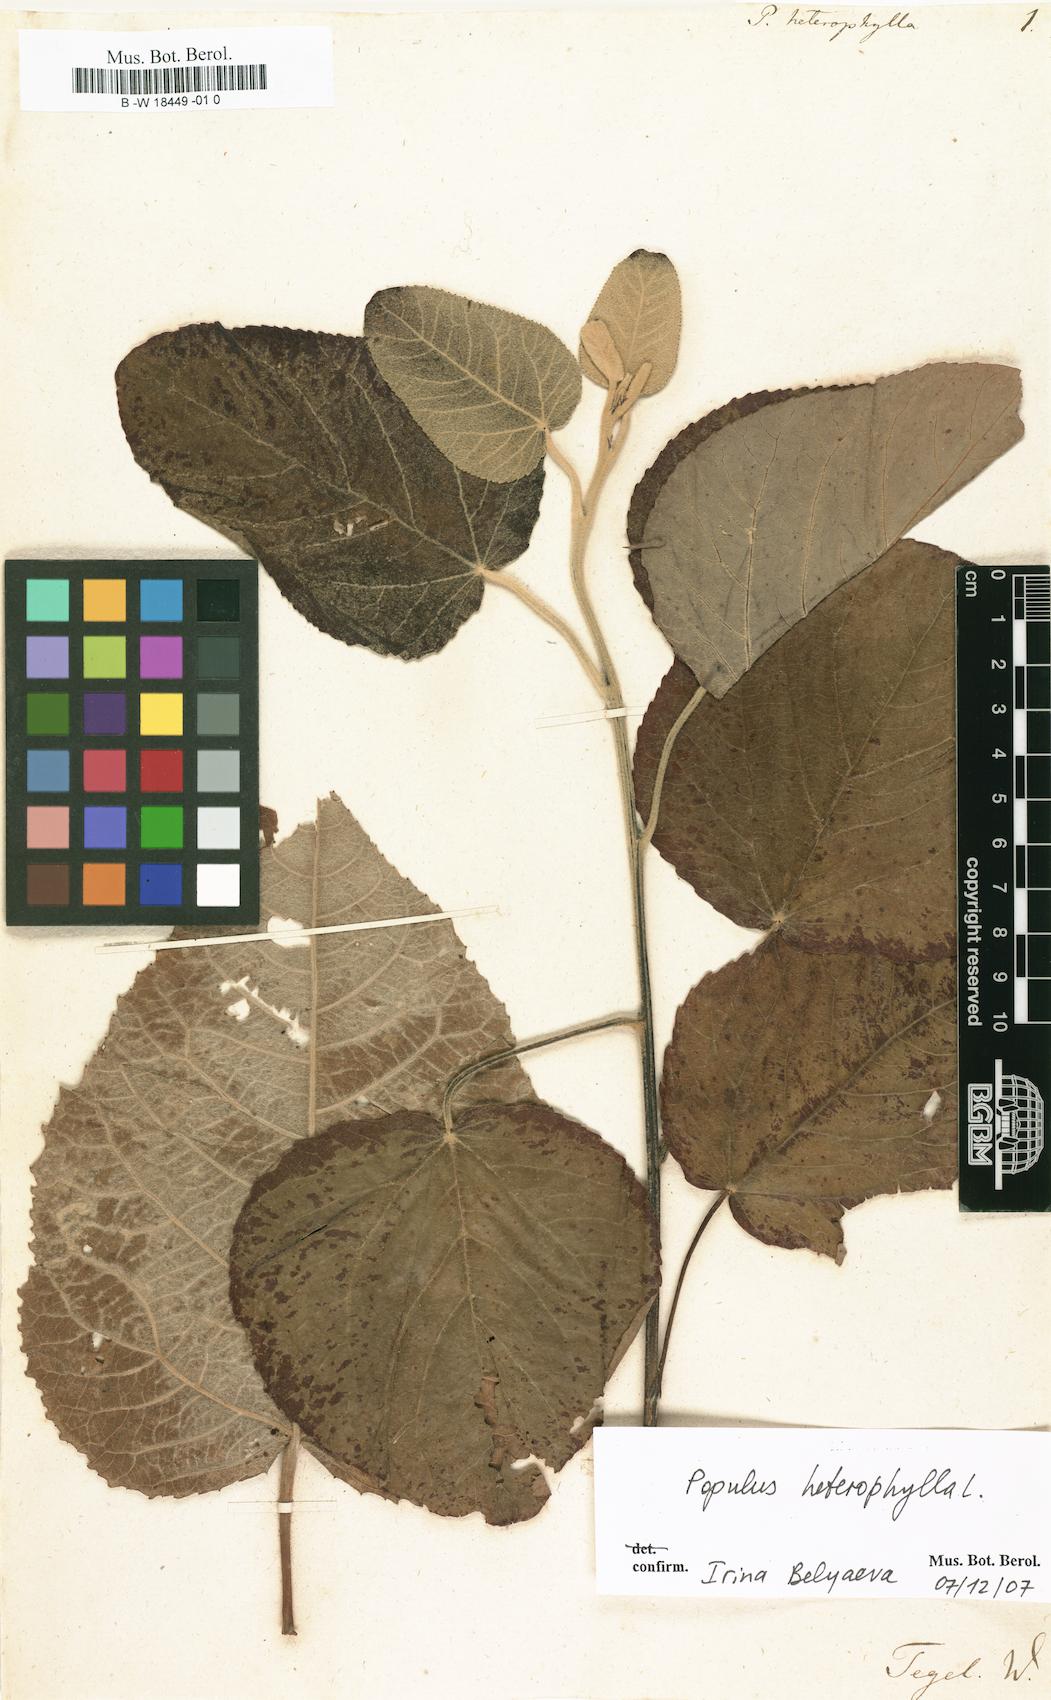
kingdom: Plantae
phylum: Tracheophyta
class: Magnoliopsida
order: Malpighiales
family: Salicaceae
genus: Populus
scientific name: Populus heterophylla
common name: Downy poplar
